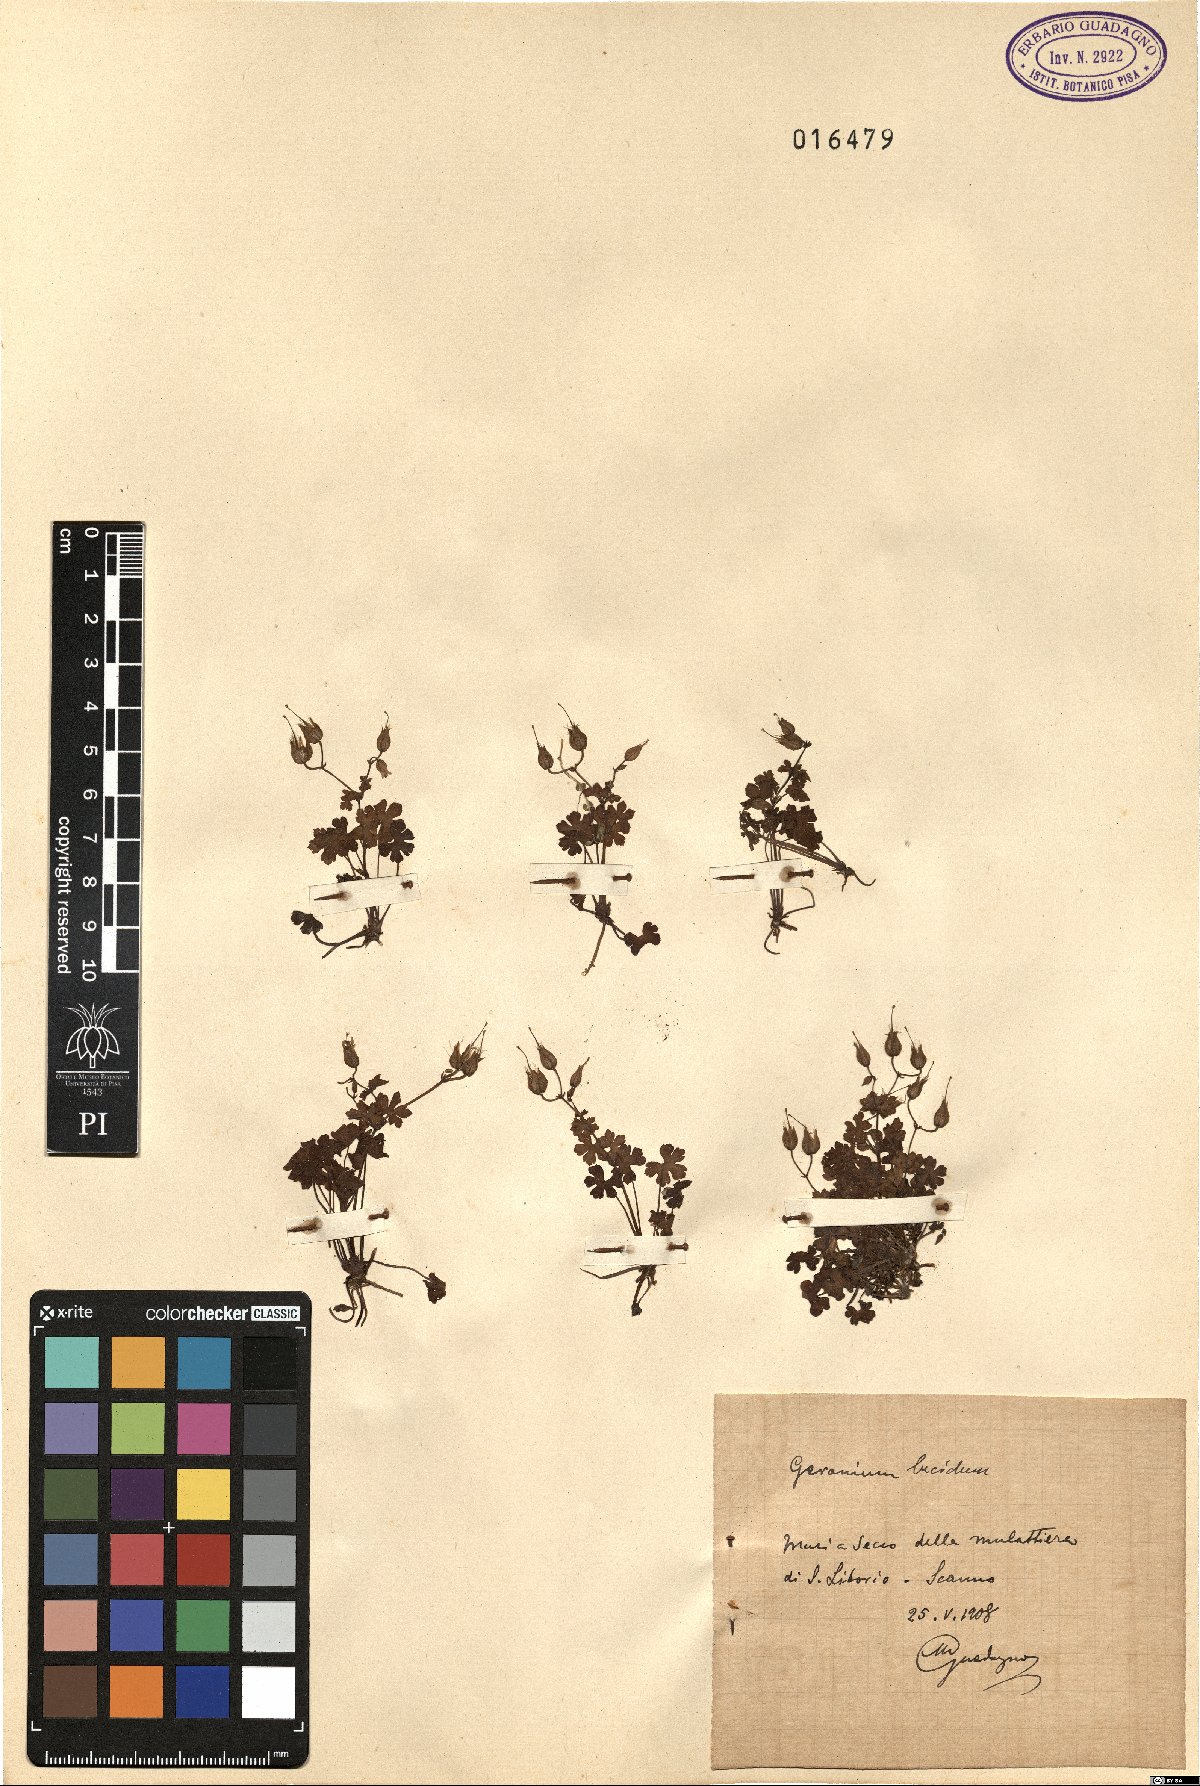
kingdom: Plantae
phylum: Tracheophyta
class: Magnoliopsida
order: Geraniales
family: Geraniaceae
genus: Geranium
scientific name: Geranium lucidum
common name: Shining crane's-bill
